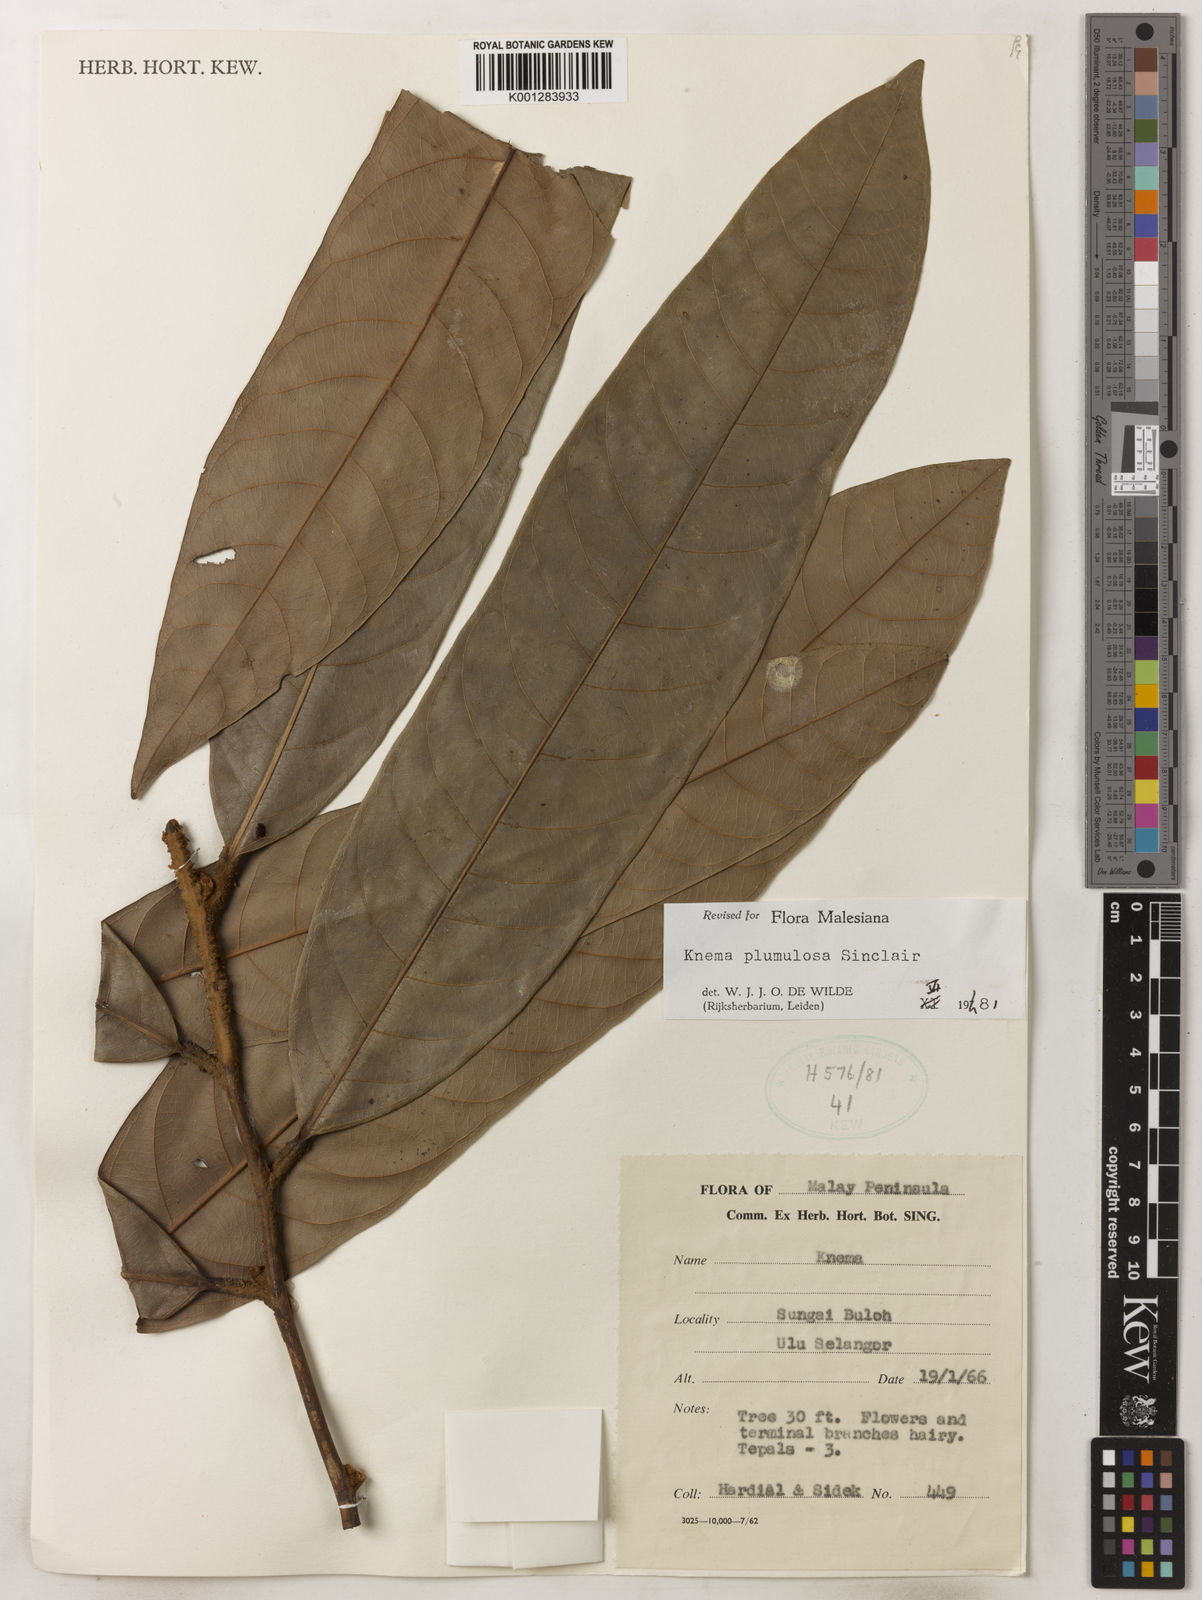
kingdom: Plantae
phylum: Tracheophyta
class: Magnoliopsida
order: Magnoliales
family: Myristicaceae
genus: Knema
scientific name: Knema plumulosa
